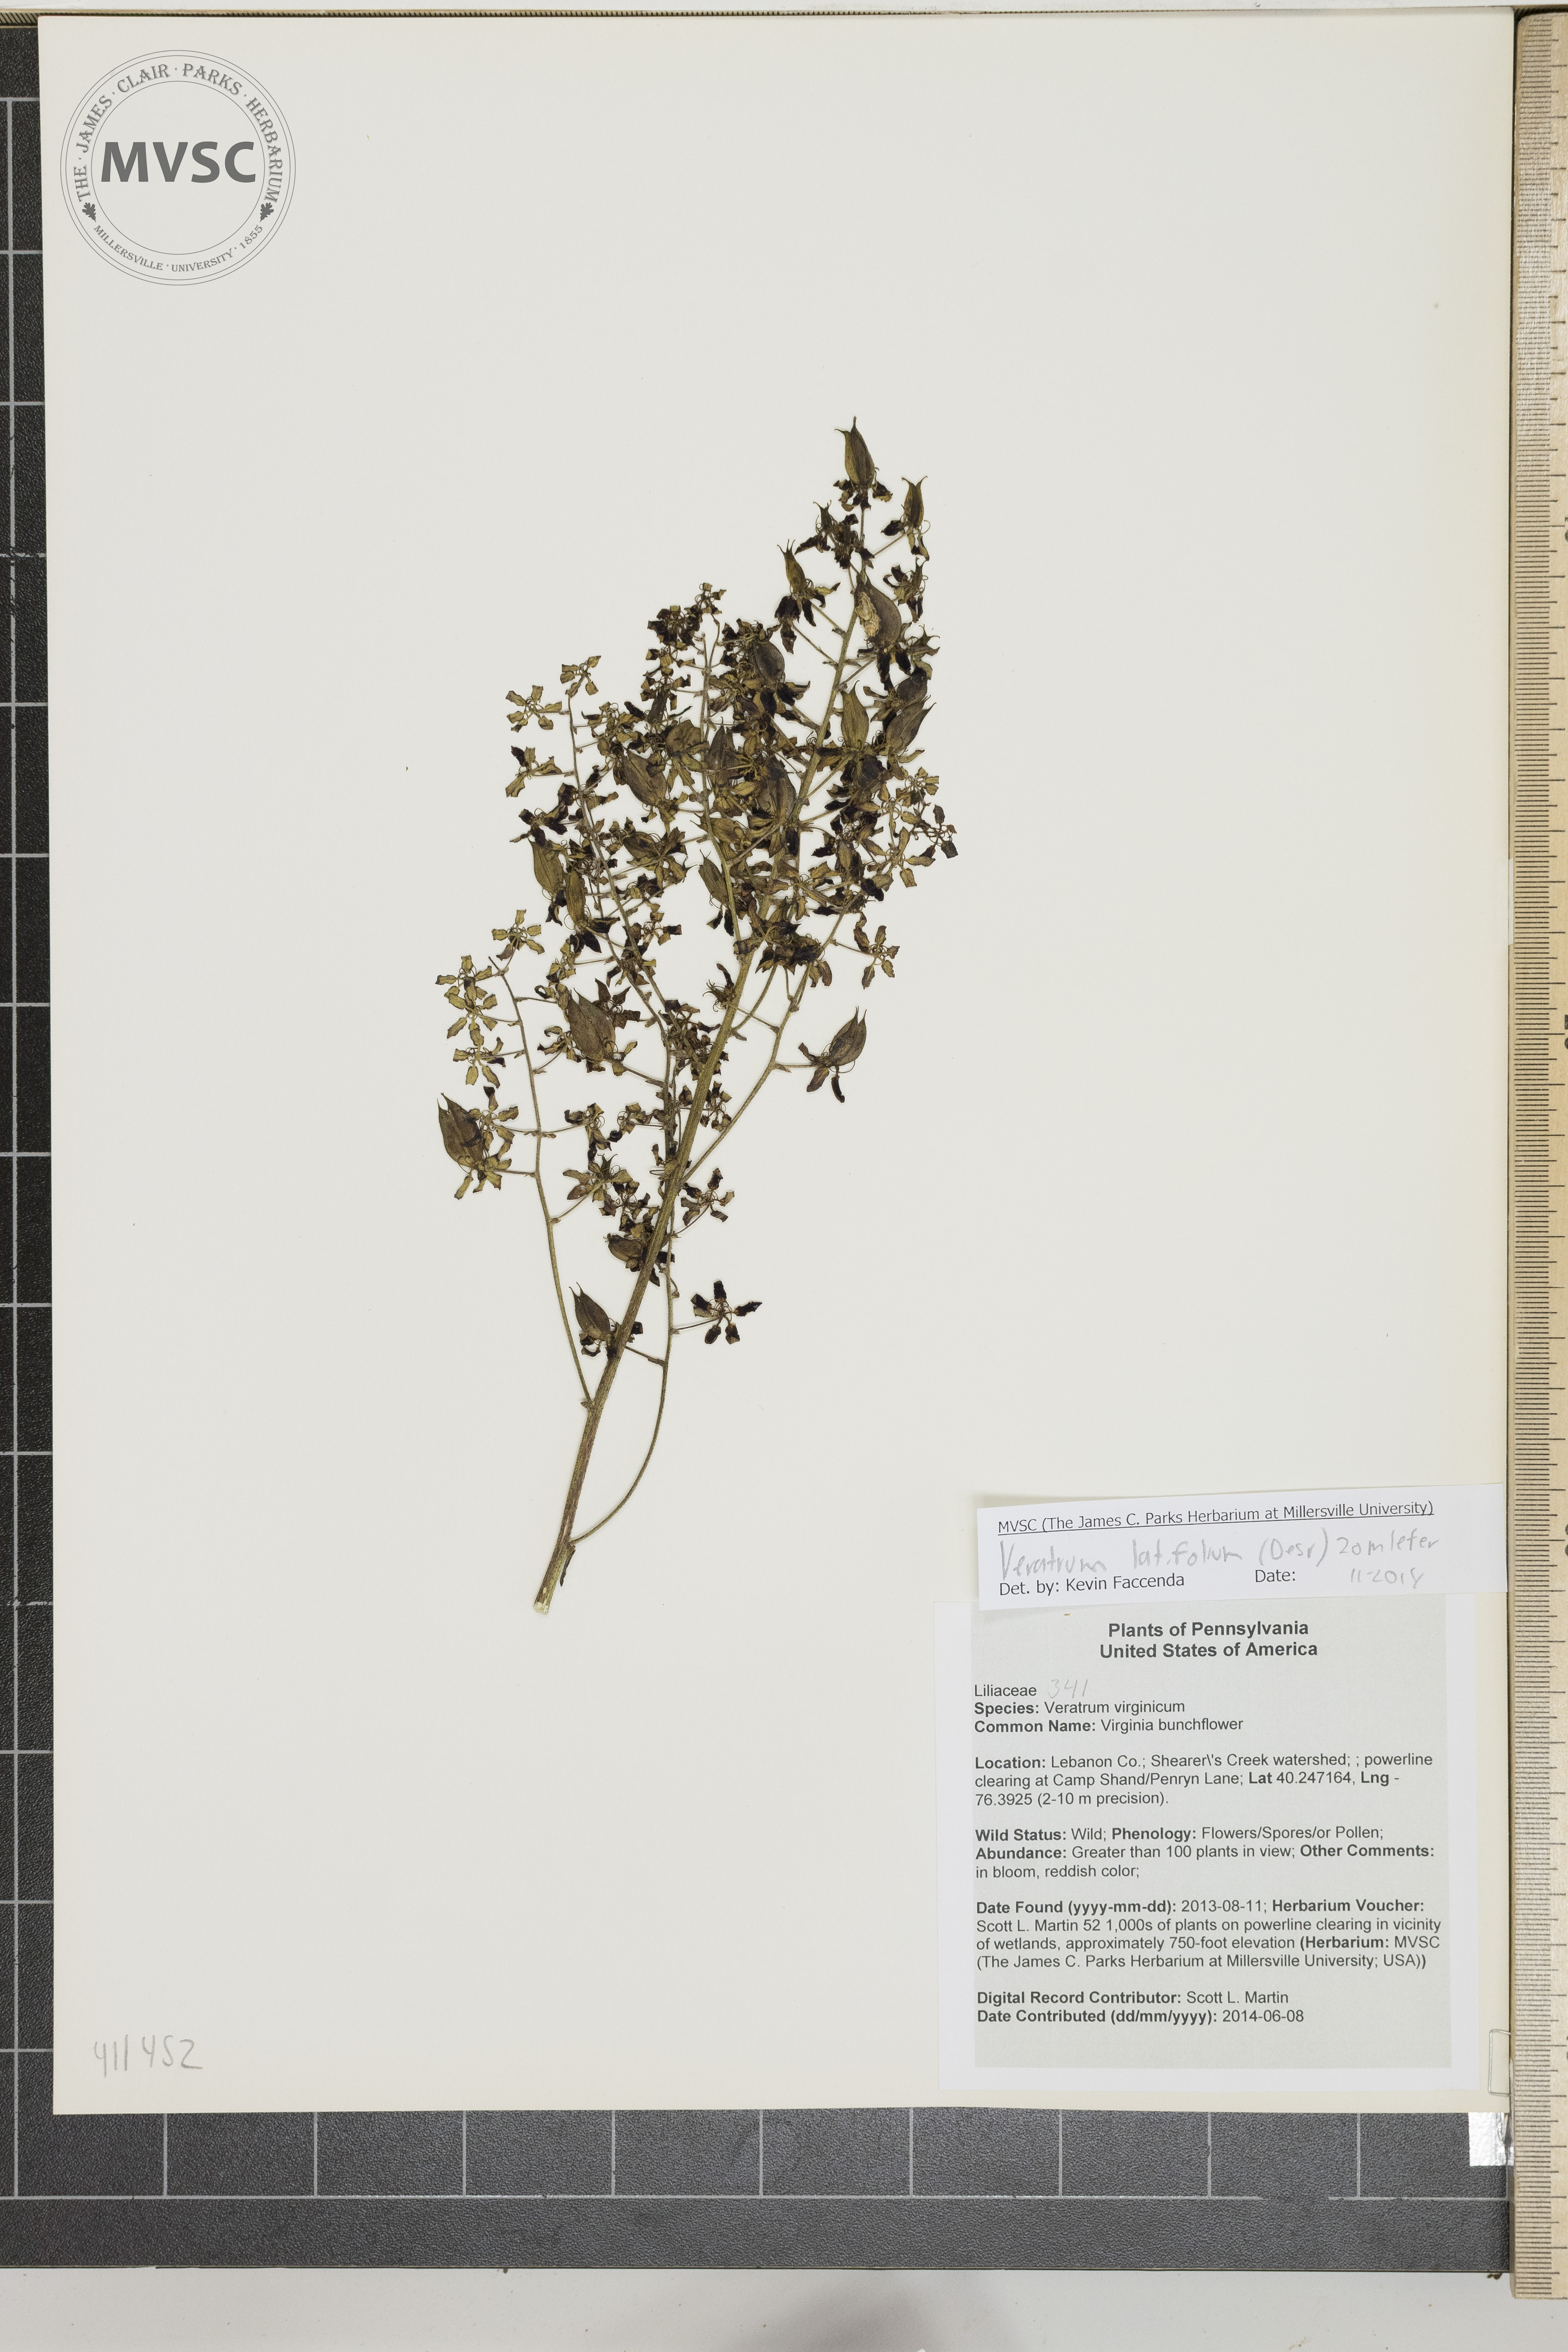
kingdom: Plantae
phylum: Tracheophyta
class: Liliopsida
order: Liliales
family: Melanthiaceae
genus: Melanthium
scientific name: Melanthium hybridum
